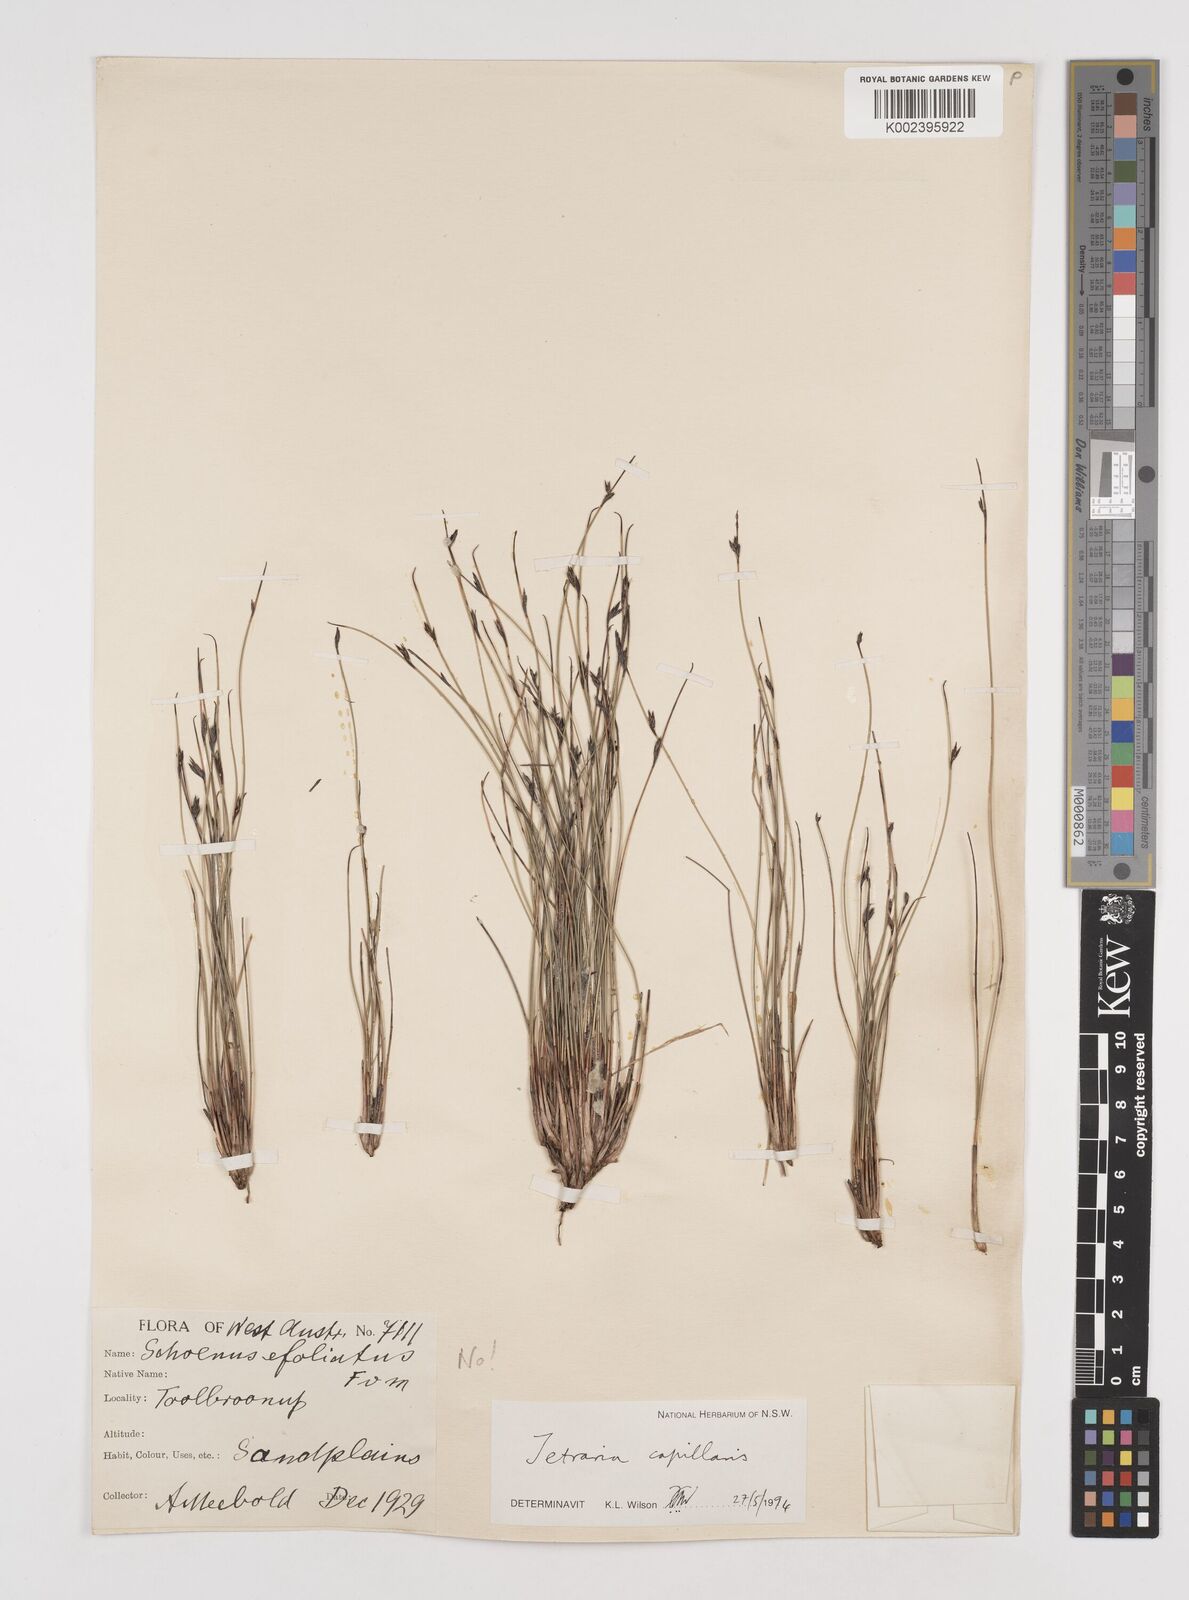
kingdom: Plantae
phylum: Tracheophyta
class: Liliopsida
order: Poales
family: Cyperaceae
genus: Tetraria
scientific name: Tetraria capillaris
